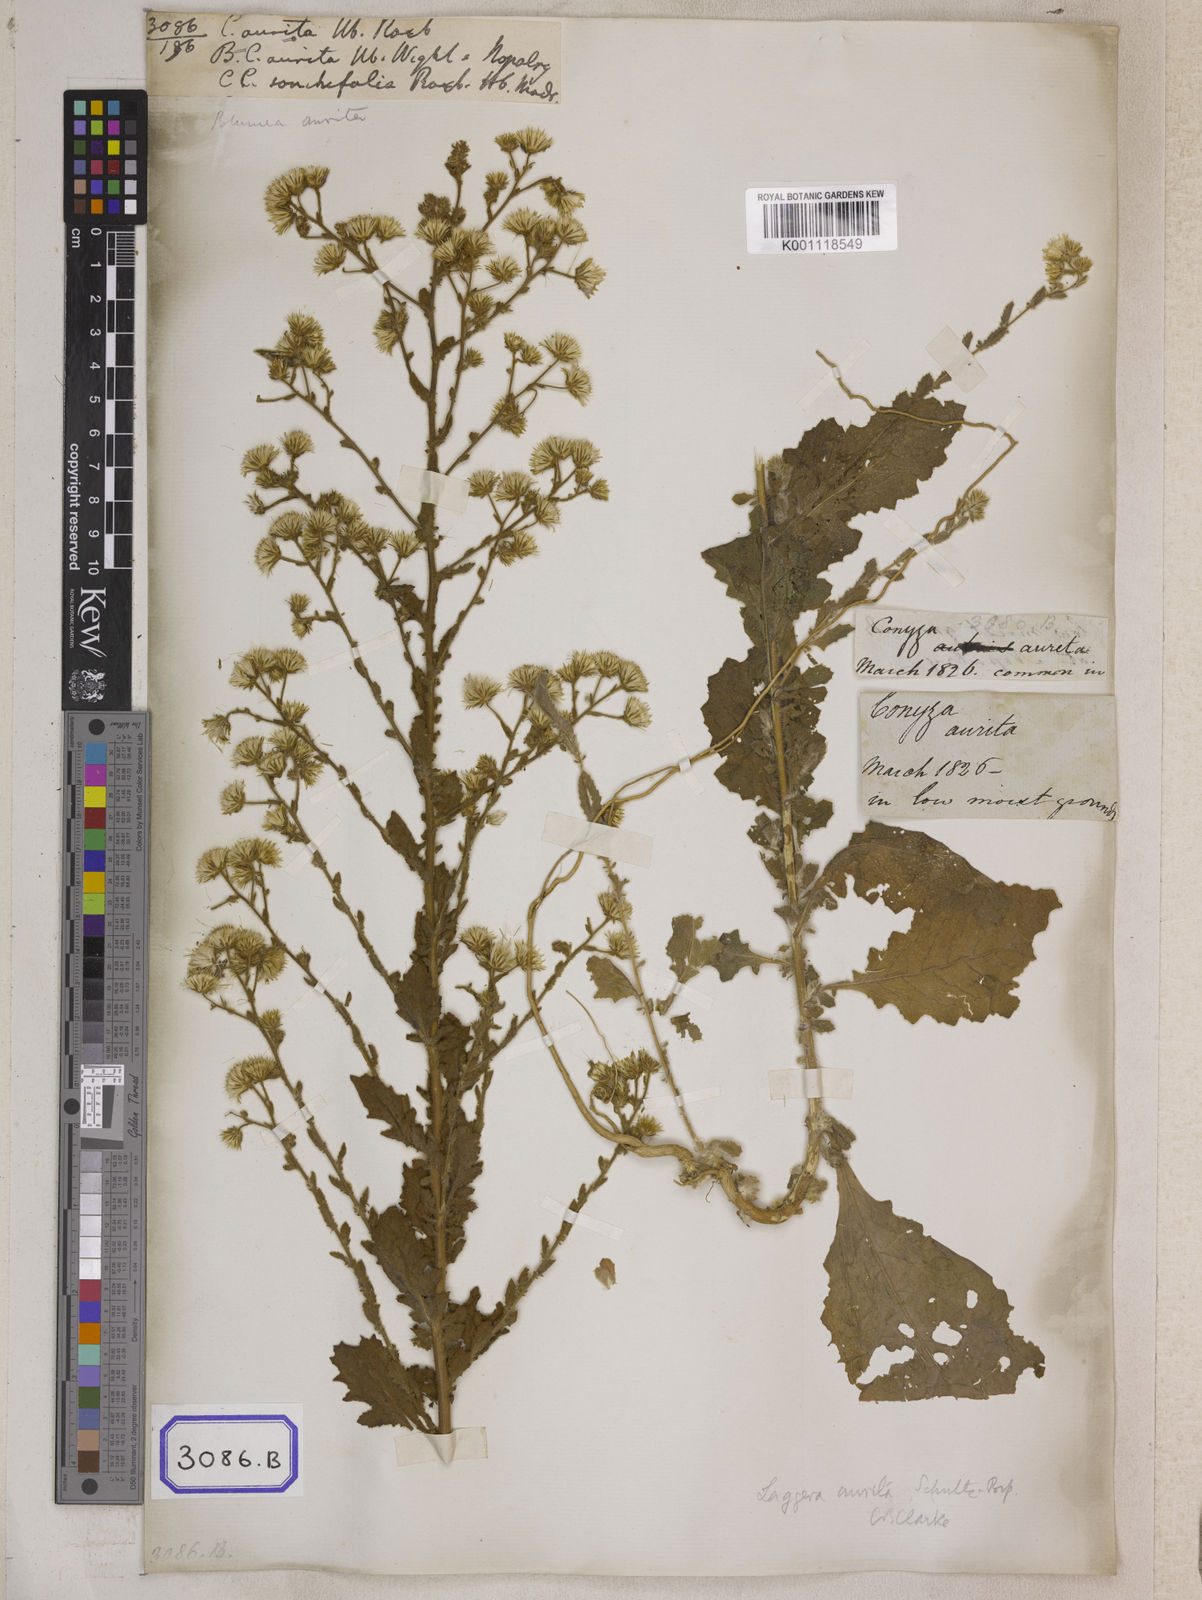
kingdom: Plantae
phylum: Tracheophyta
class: Magnoliopsida
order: Asterales
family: Asteraceae
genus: Pseudoconyza
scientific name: Pseudoconyza viscosa
